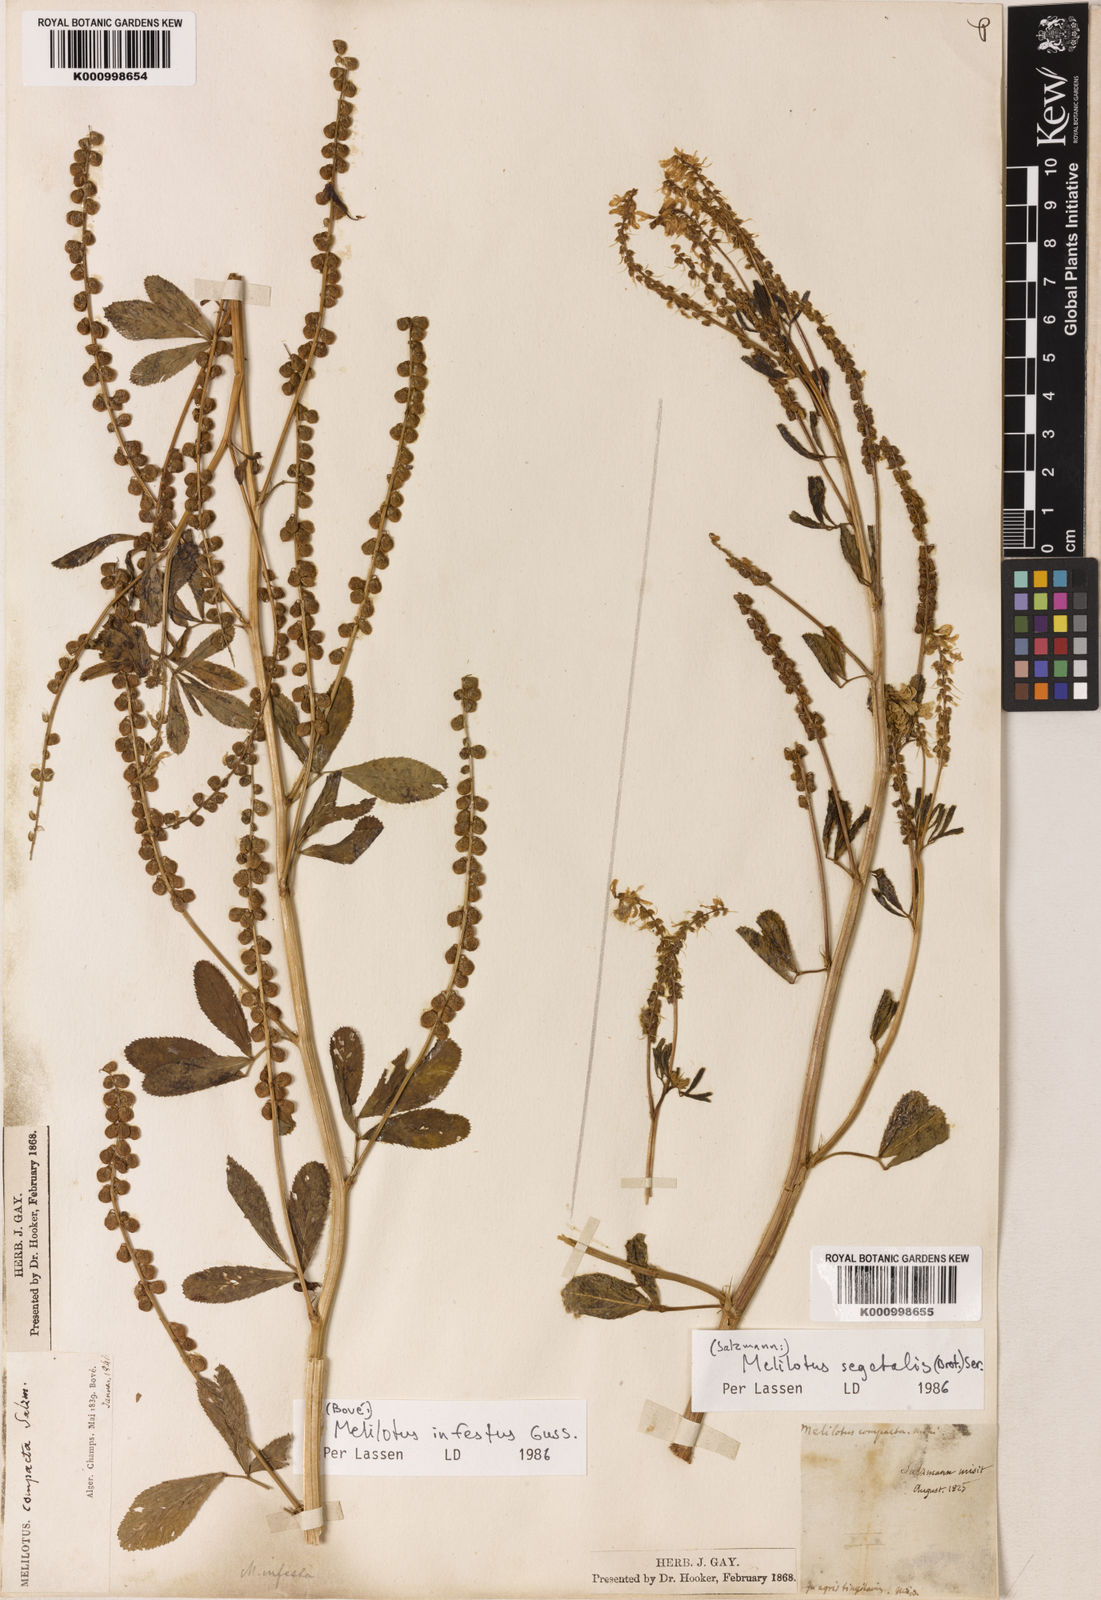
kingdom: Plantae
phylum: Tracheophyta
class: Magnoliopsida
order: Fabales
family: Fabaceae
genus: Melilotus
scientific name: Melilotus segetalis
